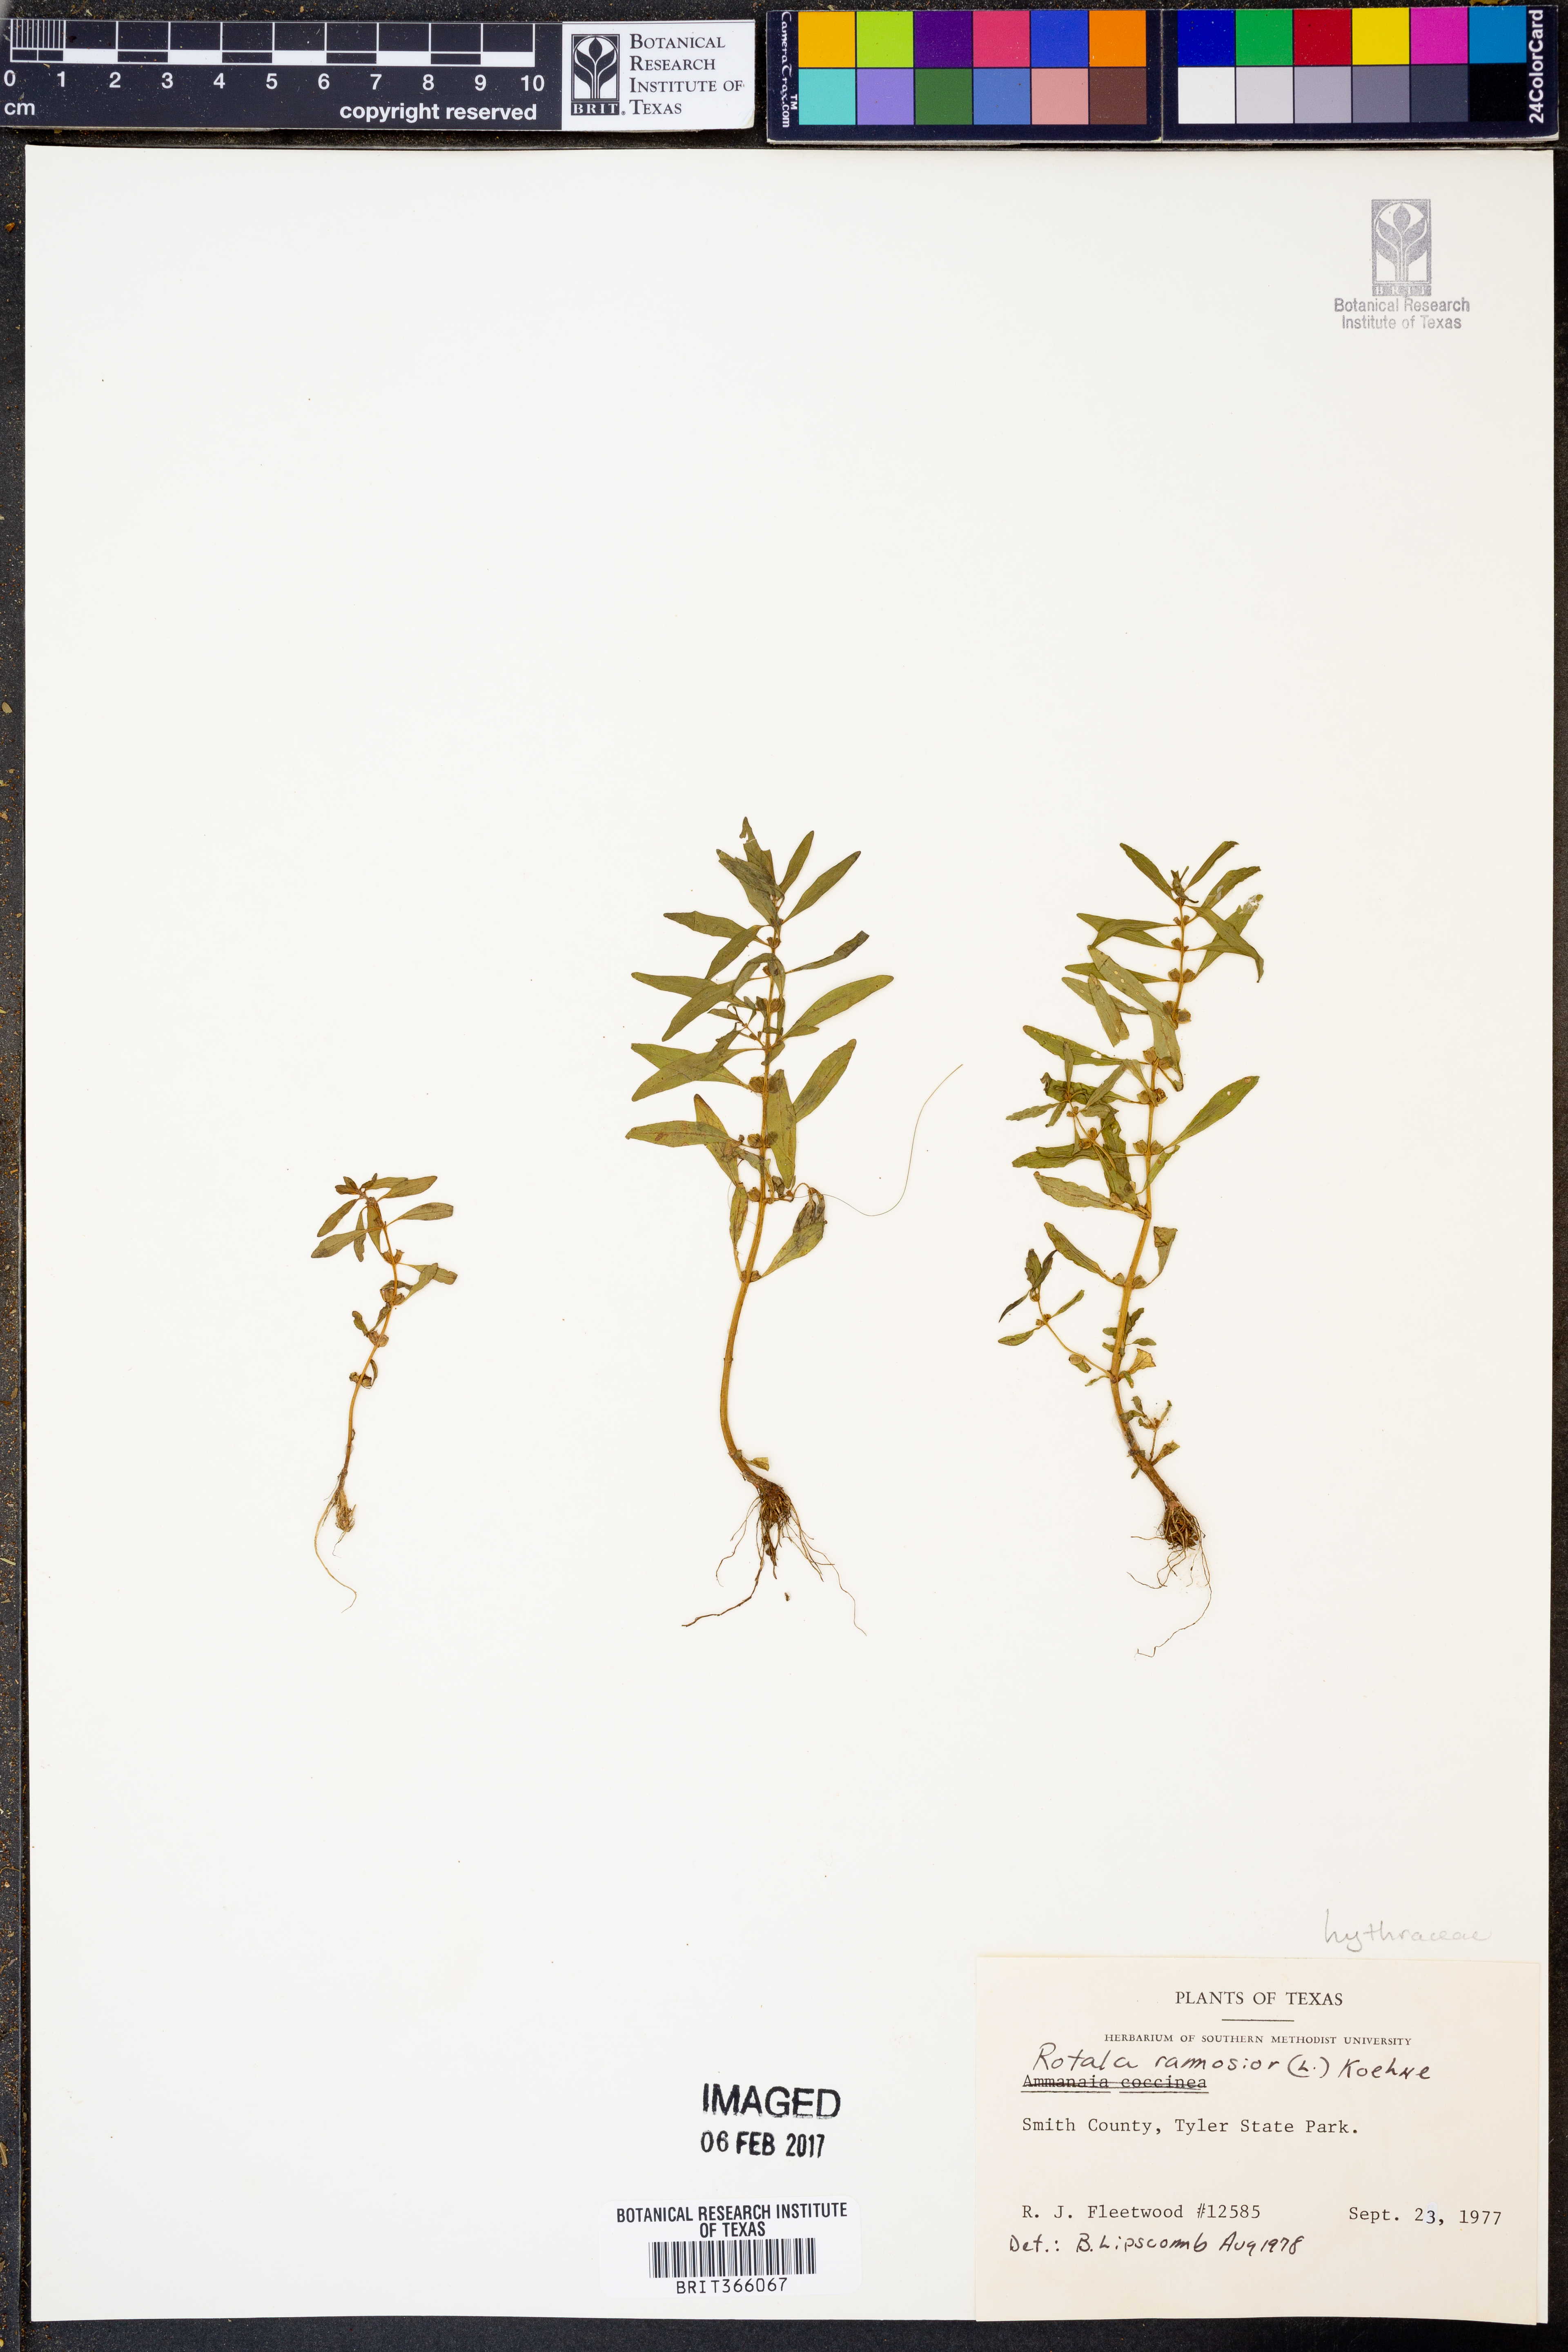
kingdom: Plantae
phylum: Tracheophyta
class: Magnoliopsida
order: Myrtales
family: Lythraceae
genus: Rotala
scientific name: Rotala ramosior
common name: Lowland rotala
